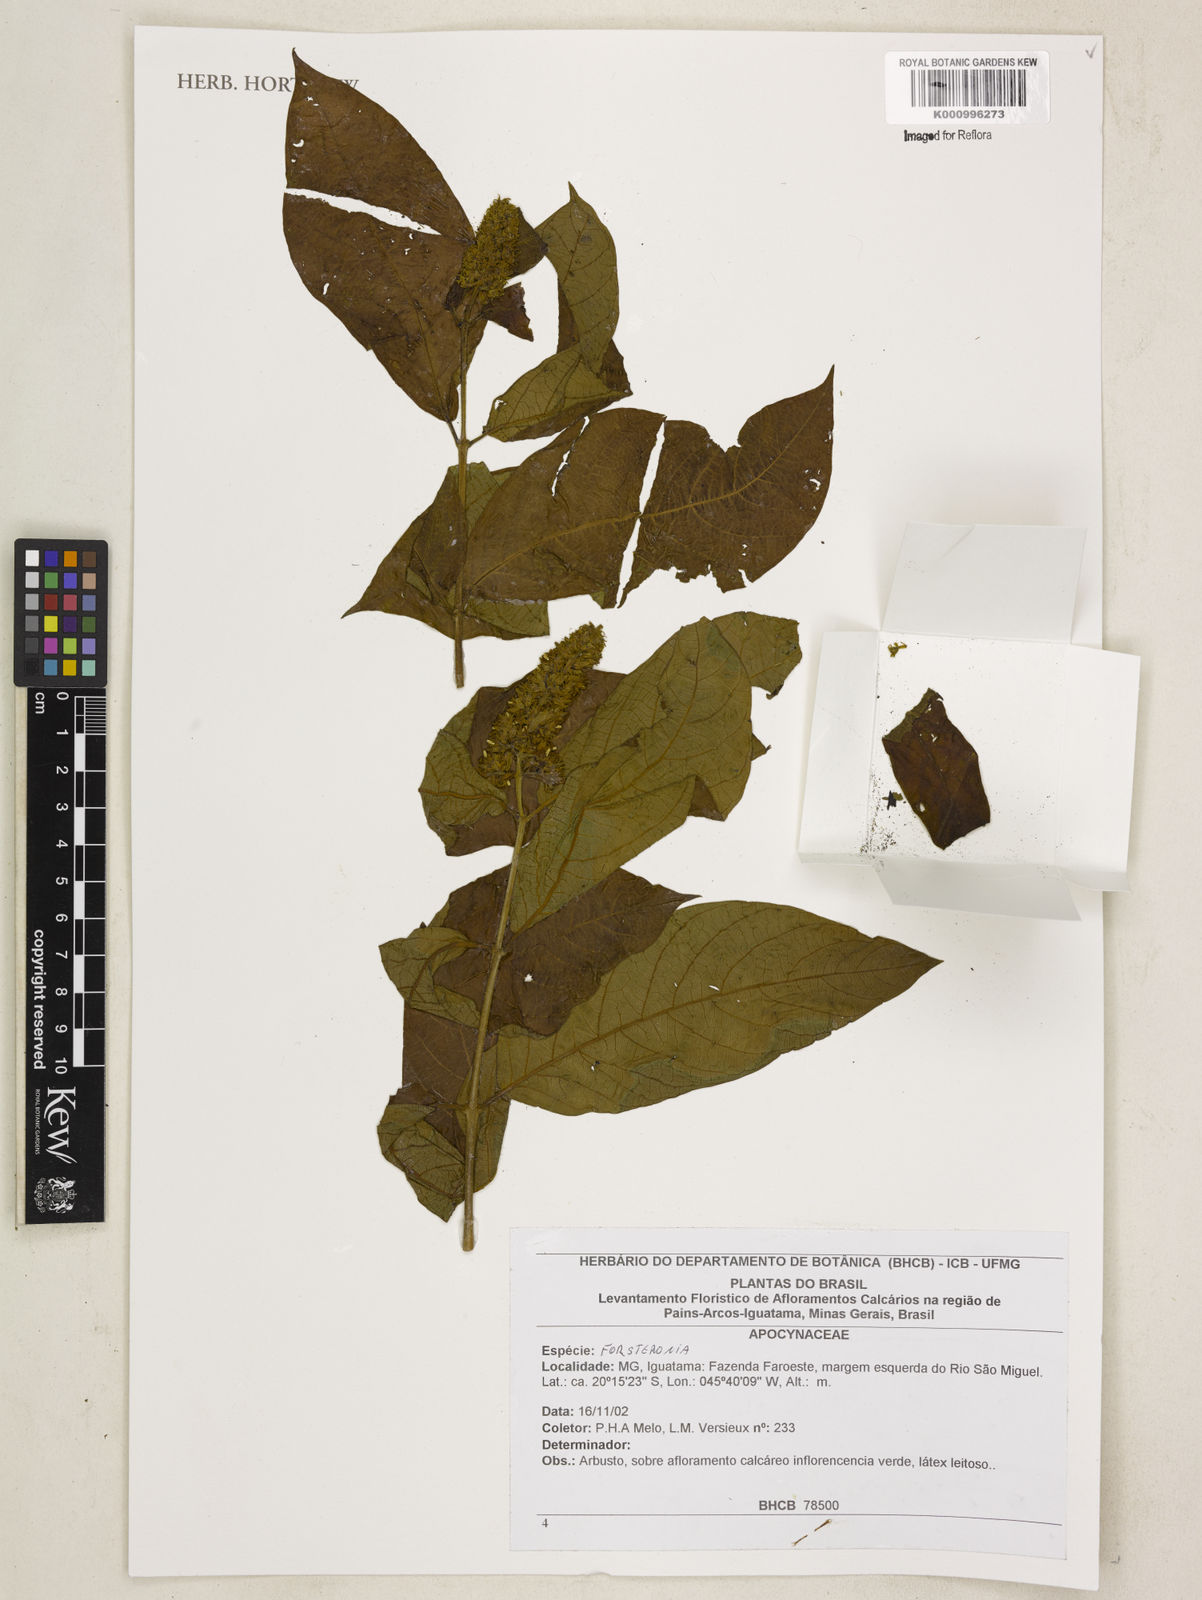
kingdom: Plantae
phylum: Tracheophyta
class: Magnoliopsida
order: Gentianales
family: Apocynaceae
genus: Forsteronia
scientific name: Forsteronia
